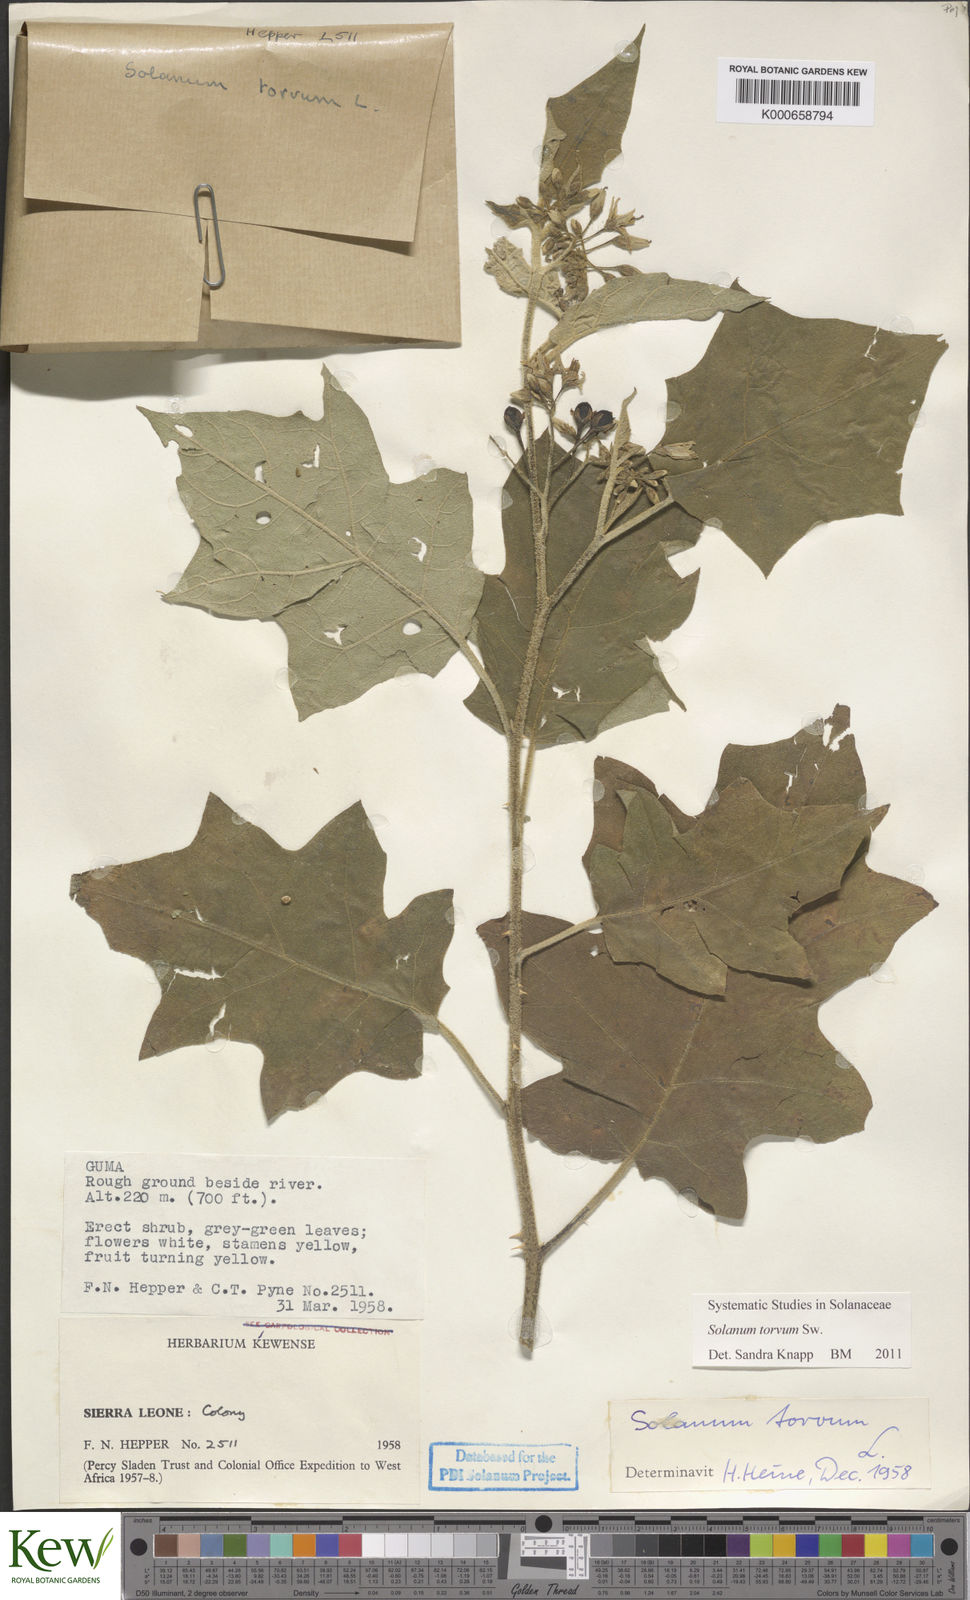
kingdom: Plantae
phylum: Tracheophyta
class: Magnoliopsida
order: Solanales
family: Solanaceae
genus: Solanum
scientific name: Solanum torvum
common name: Turkey berry
